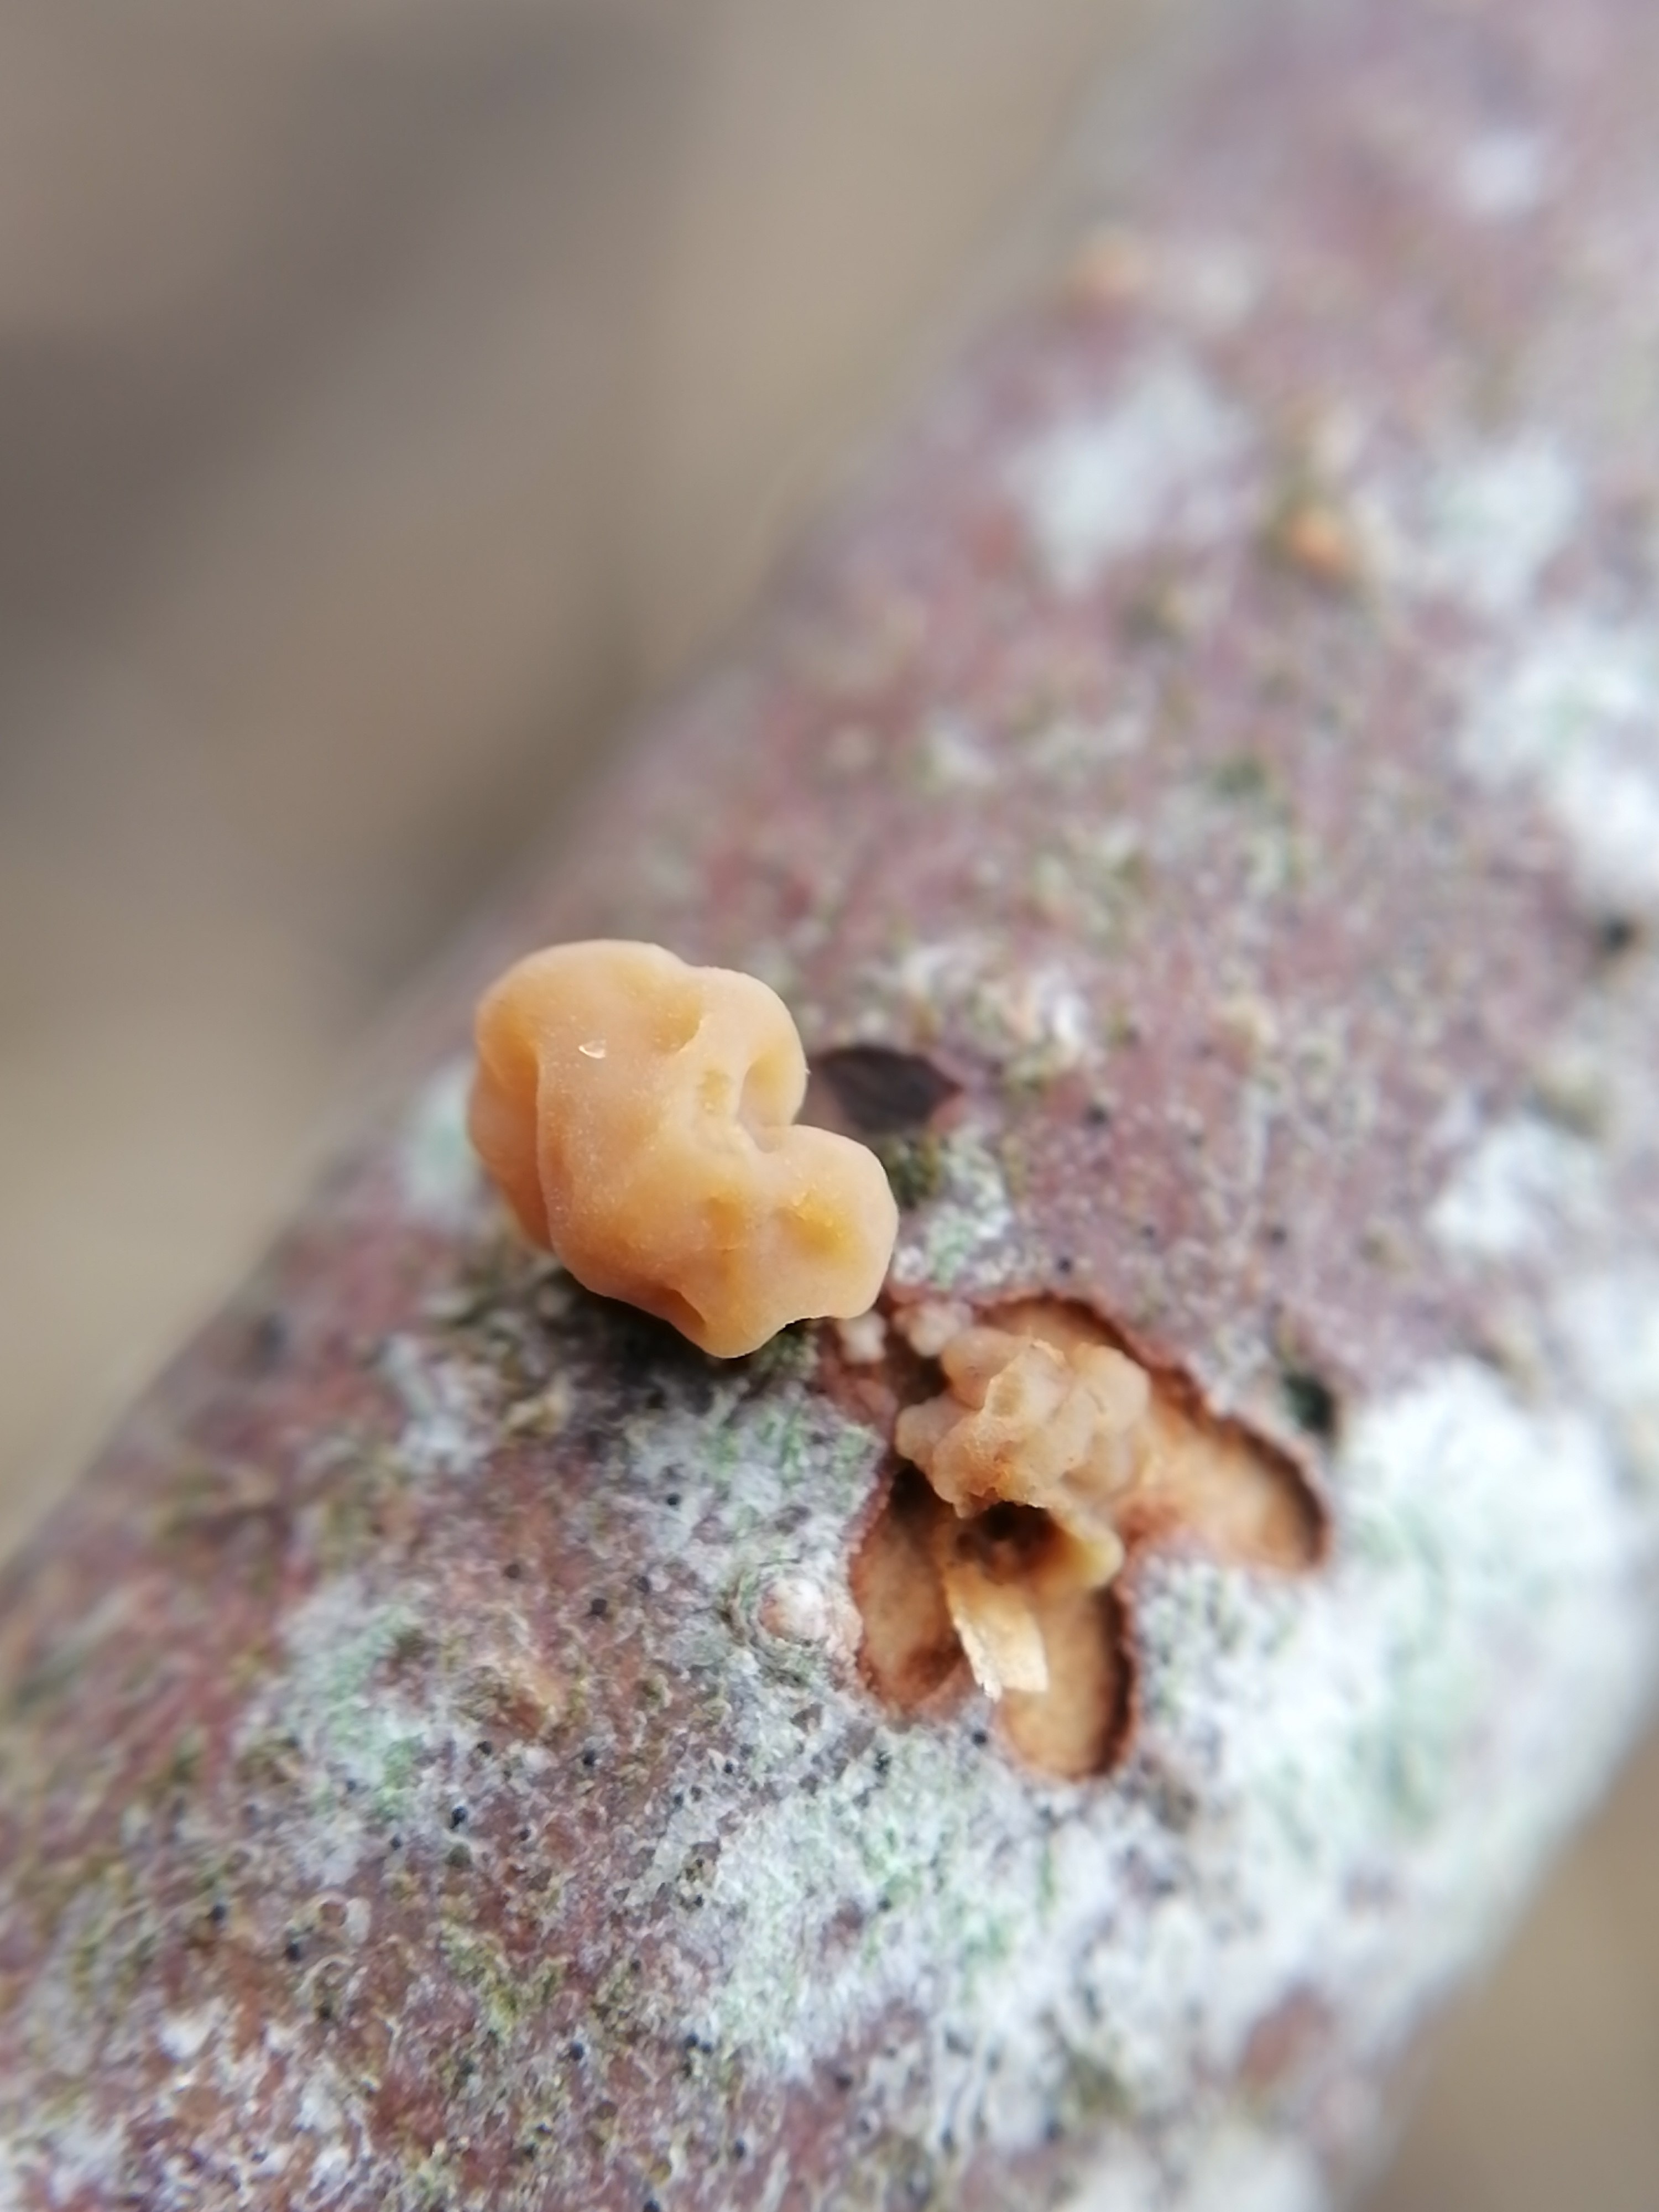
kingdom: Fungi
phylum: Basidiomycota
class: Agaricomycetes
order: Agaricales
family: Typhulaceae
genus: Typhula
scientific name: Typhula contorta
